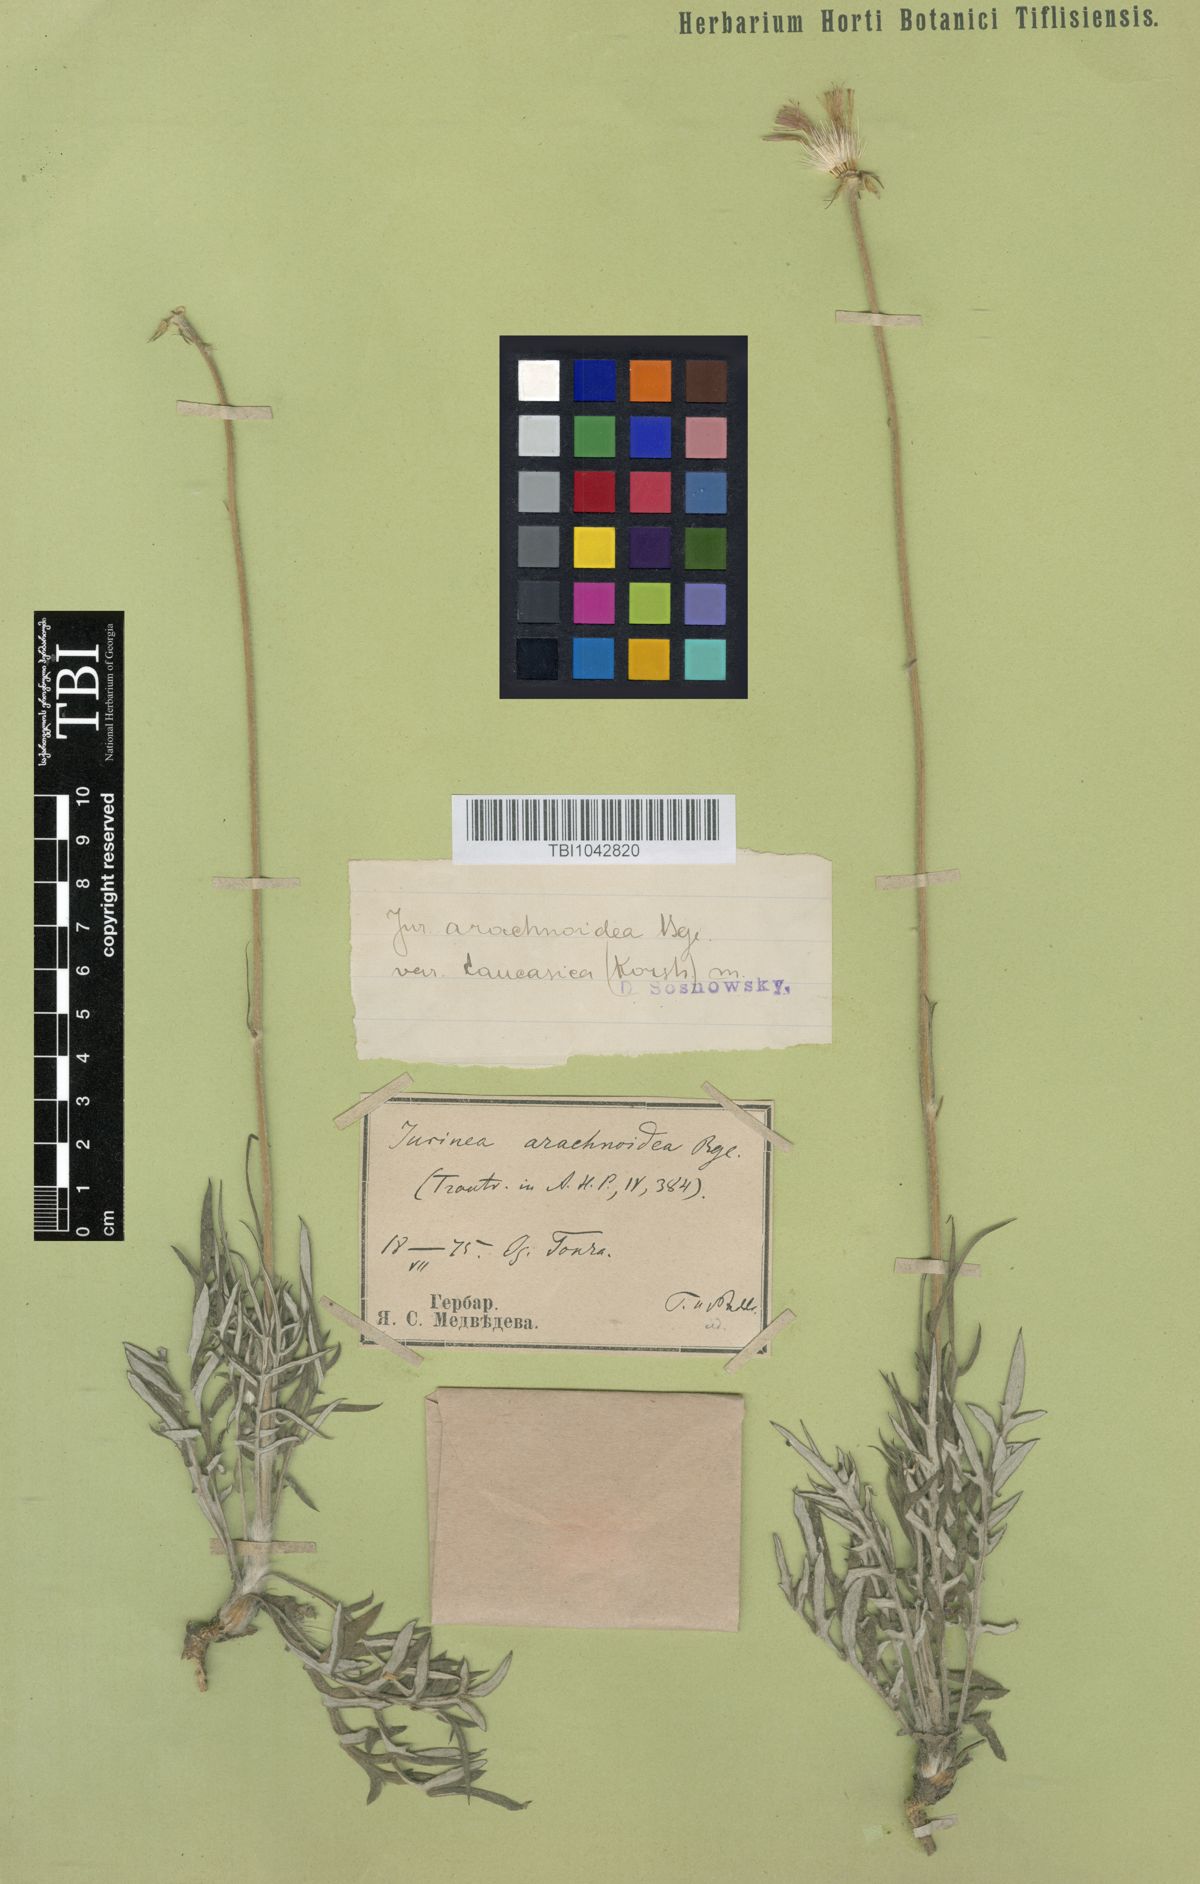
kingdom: Plantae
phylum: Tracheophyta
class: Magnoliopsida
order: Asterales
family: Asteraceae
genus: Jurinea
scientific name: Jurinea blanda
